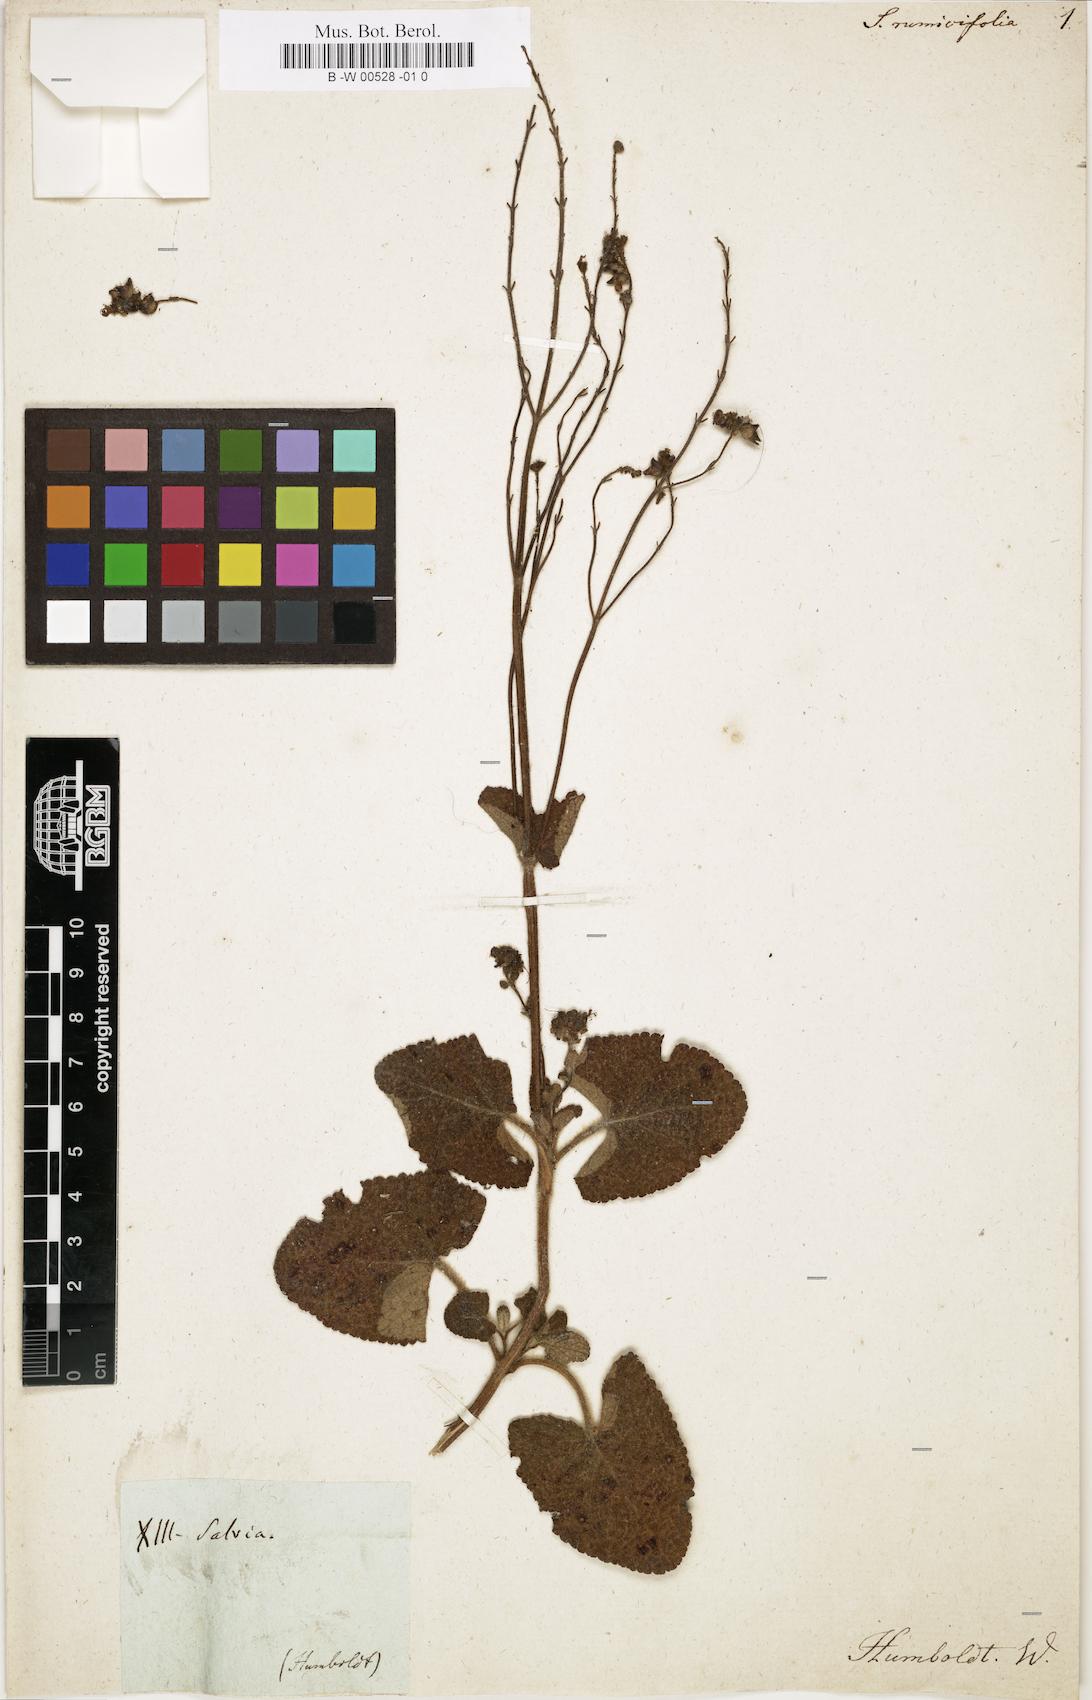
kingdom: Plantae
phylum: Tracheophyta
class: Magnoliopsida
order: Lamiales
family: Lamiaceae
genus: Salvia
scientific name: Salvia sagittata
